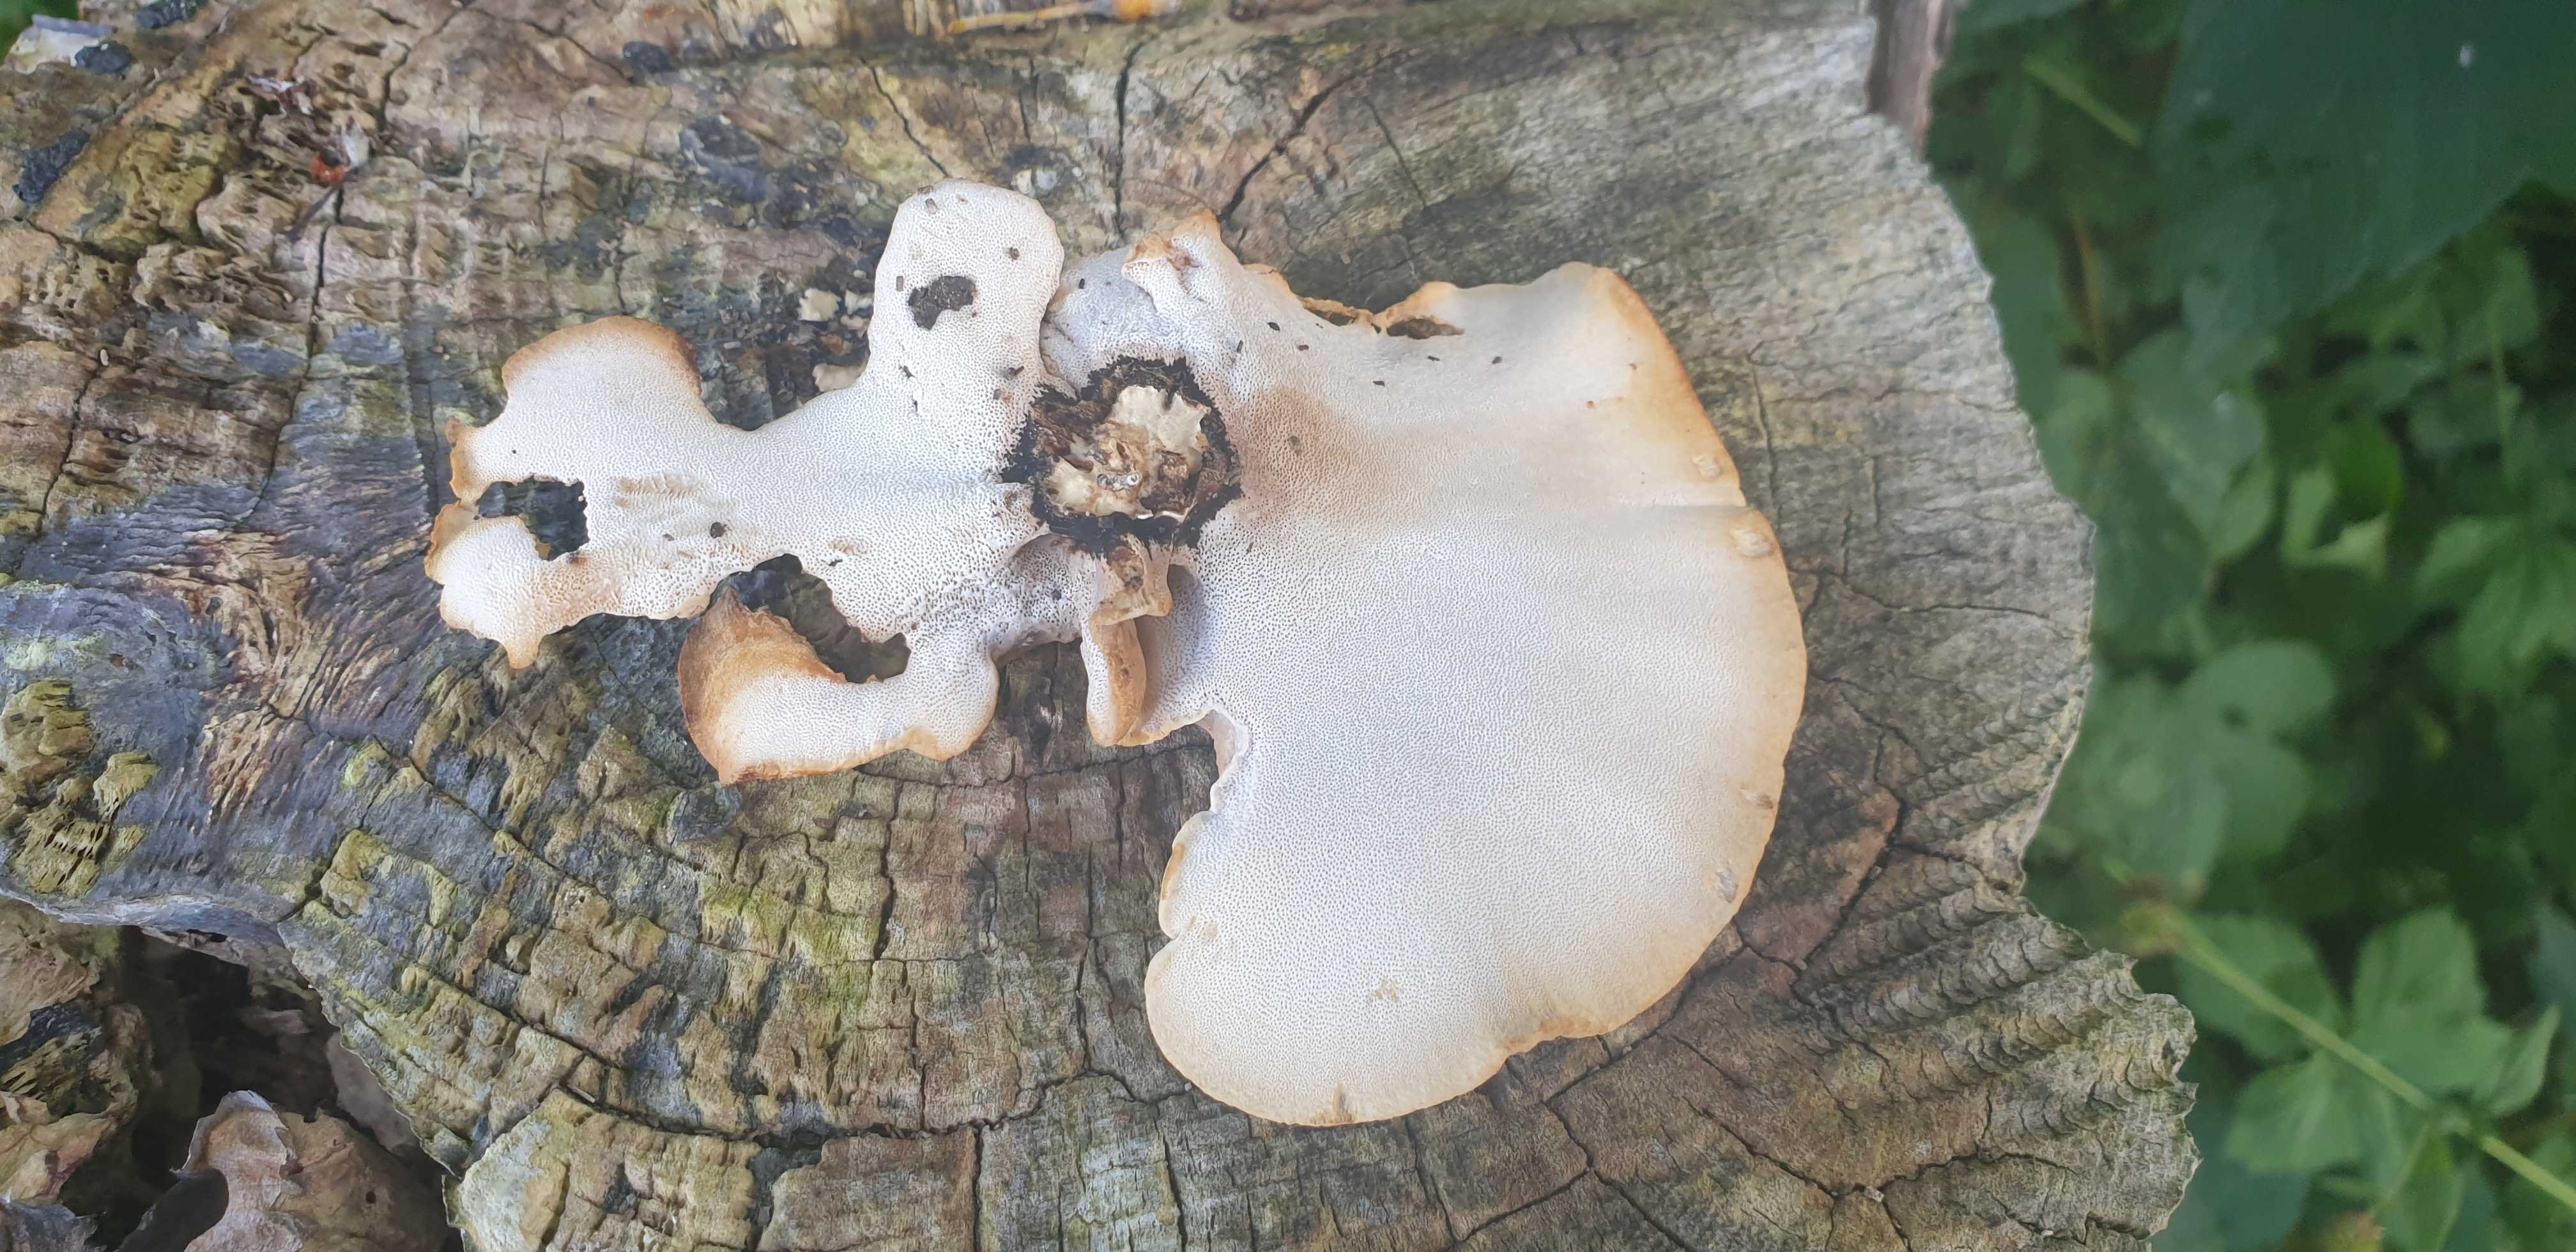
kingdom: Fungi
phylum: Basidiomycota
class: Agaricomycetes
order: Polyporales
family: Polyporaceae
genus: Cerioporus
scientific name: Cerioporus varius
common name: foranderlig stilkporesvamp
